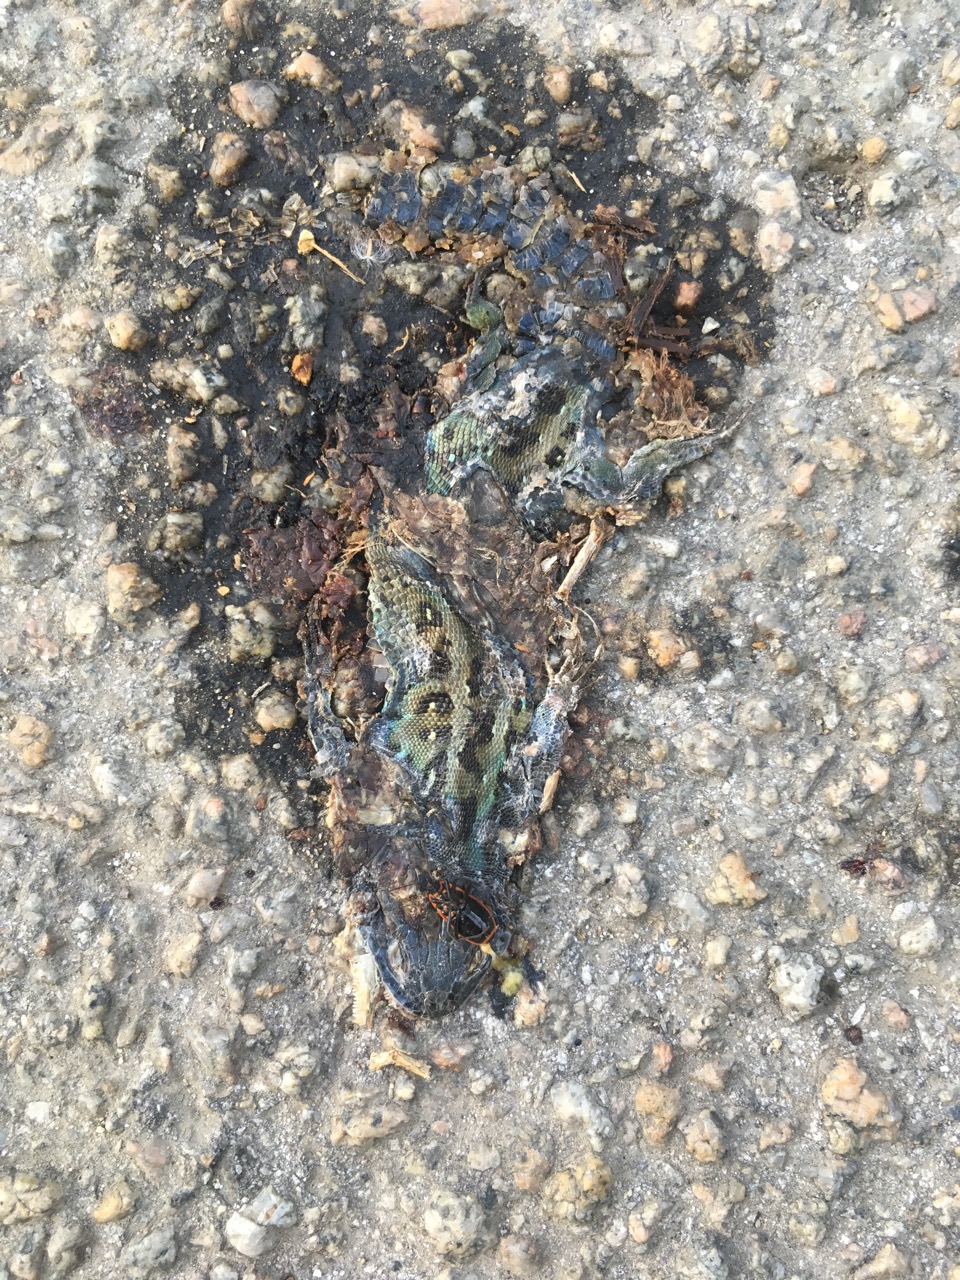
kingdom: Animalia
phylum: Chordata
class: Squamata
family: Lacertidae
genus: Lacerta
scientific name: Lacerta agilis
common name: Sand lizard
